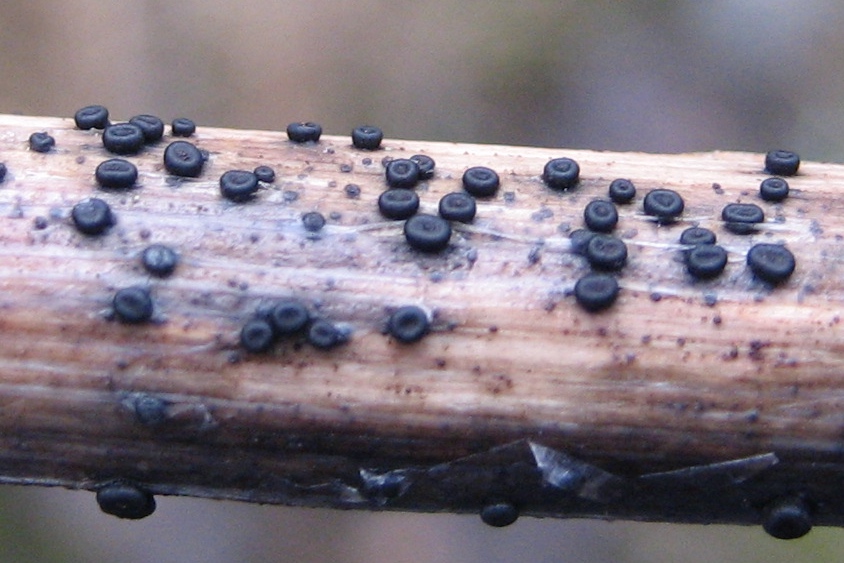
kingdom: Fungi
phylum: Ascomycota
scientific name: Ascomycota
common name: sæksvampe
